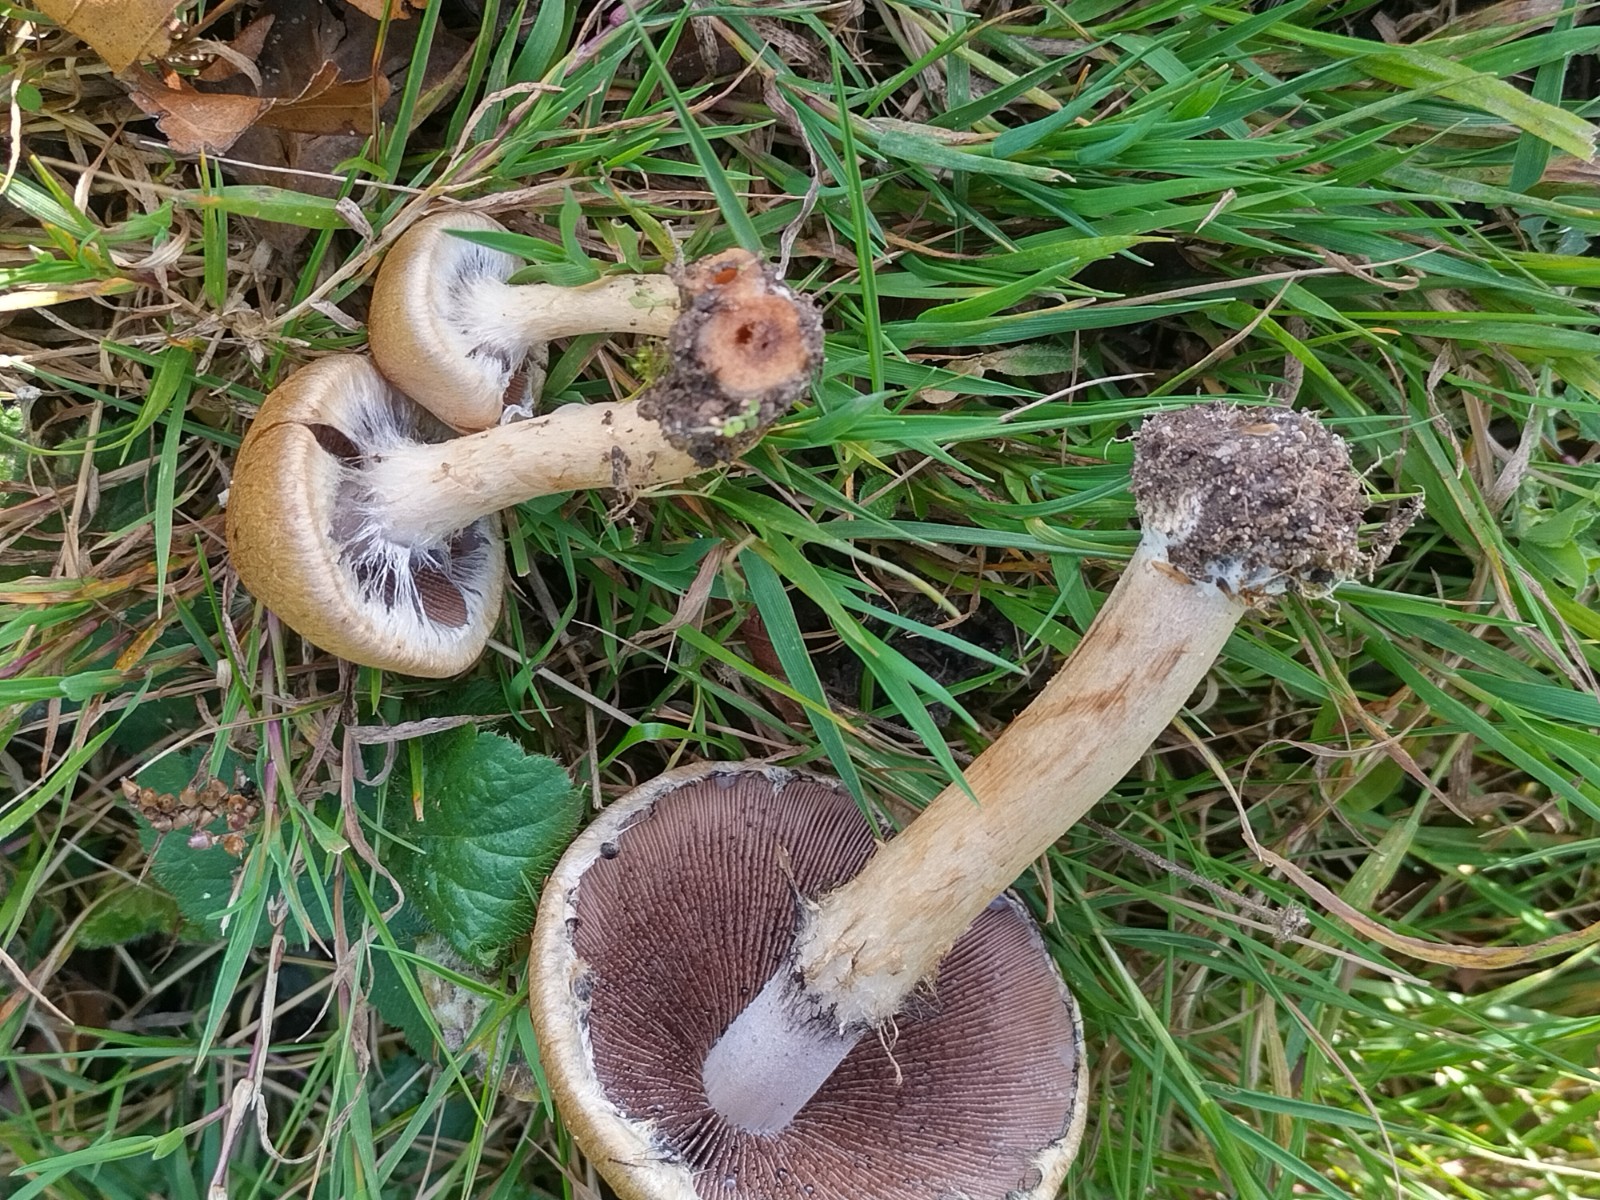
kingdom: Fungi
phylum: Basidiomycota
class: Agaricomycetes
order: Agaricales
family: Psathyrellaceae
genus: Lacrymaria
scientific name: Lacrymaria lacrymabunda
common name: grædende mørkhat
